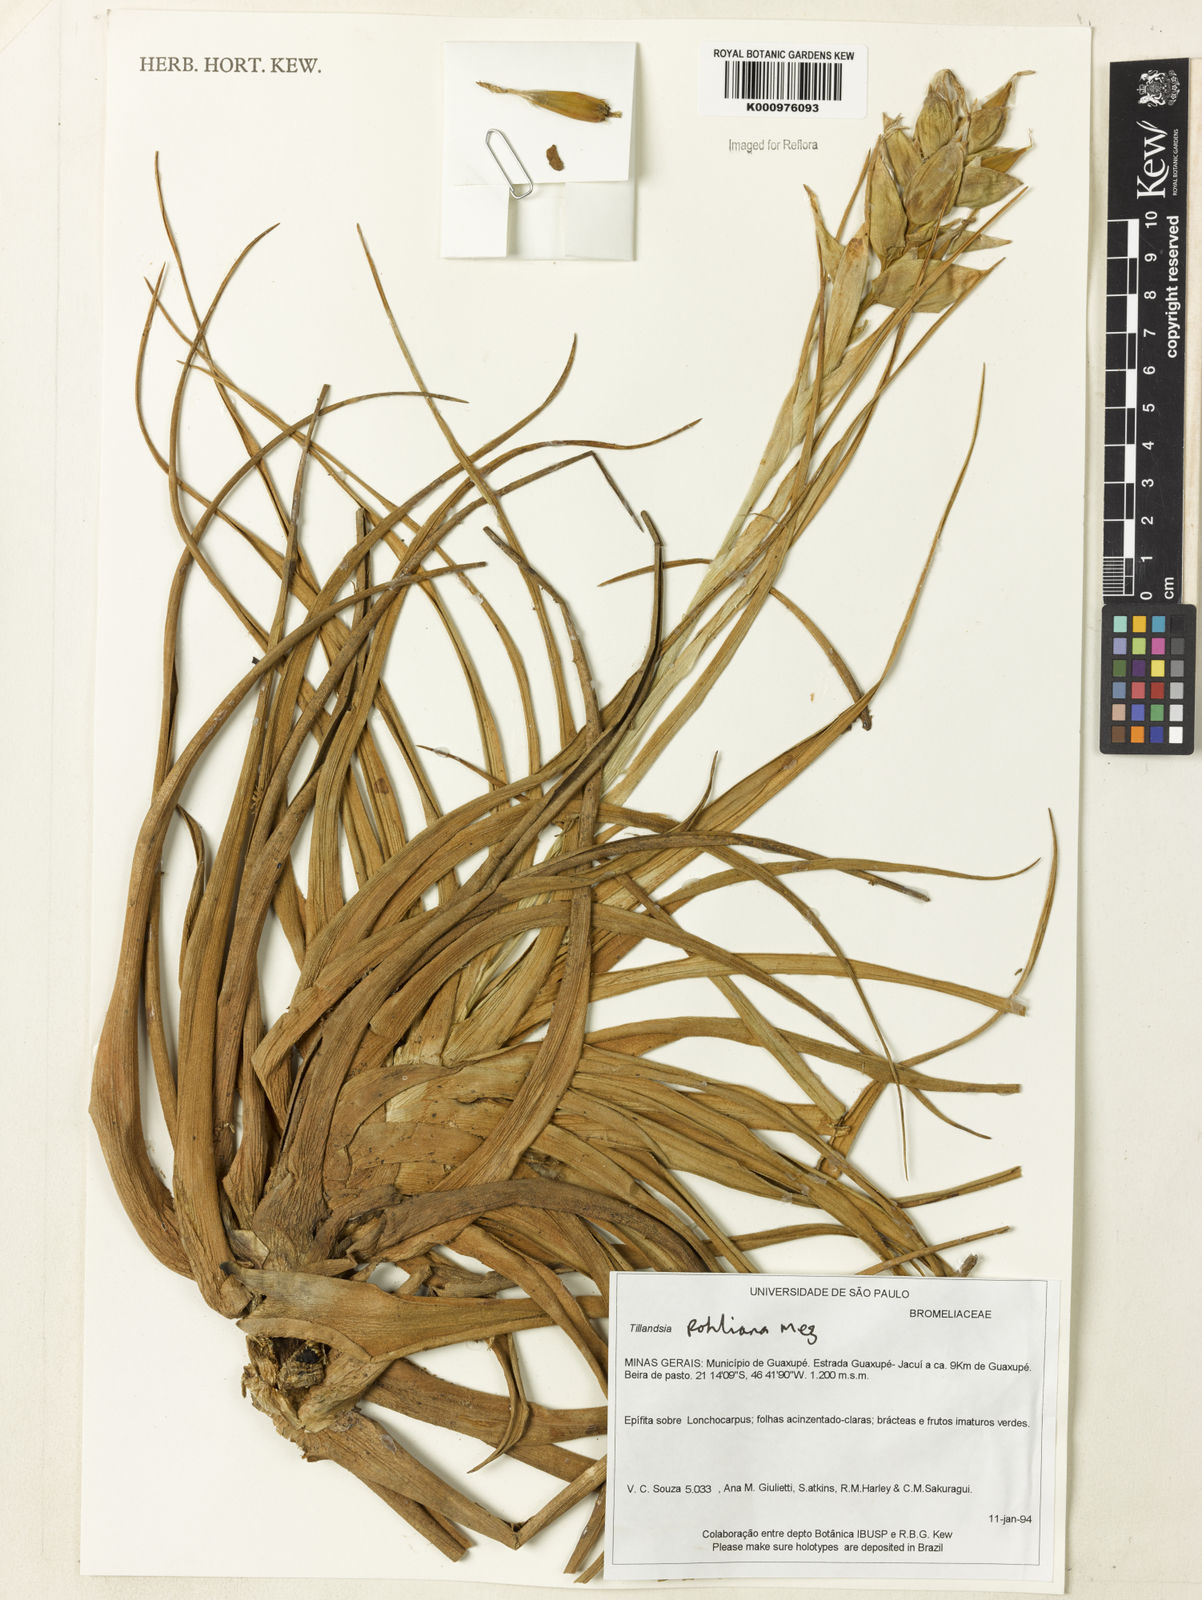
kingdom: Plantae
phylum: Tracheophyta
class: Liliopsida
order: Poales
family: Bromeliaceae
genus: Tillandsia
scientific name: Tillandsia pohliana
